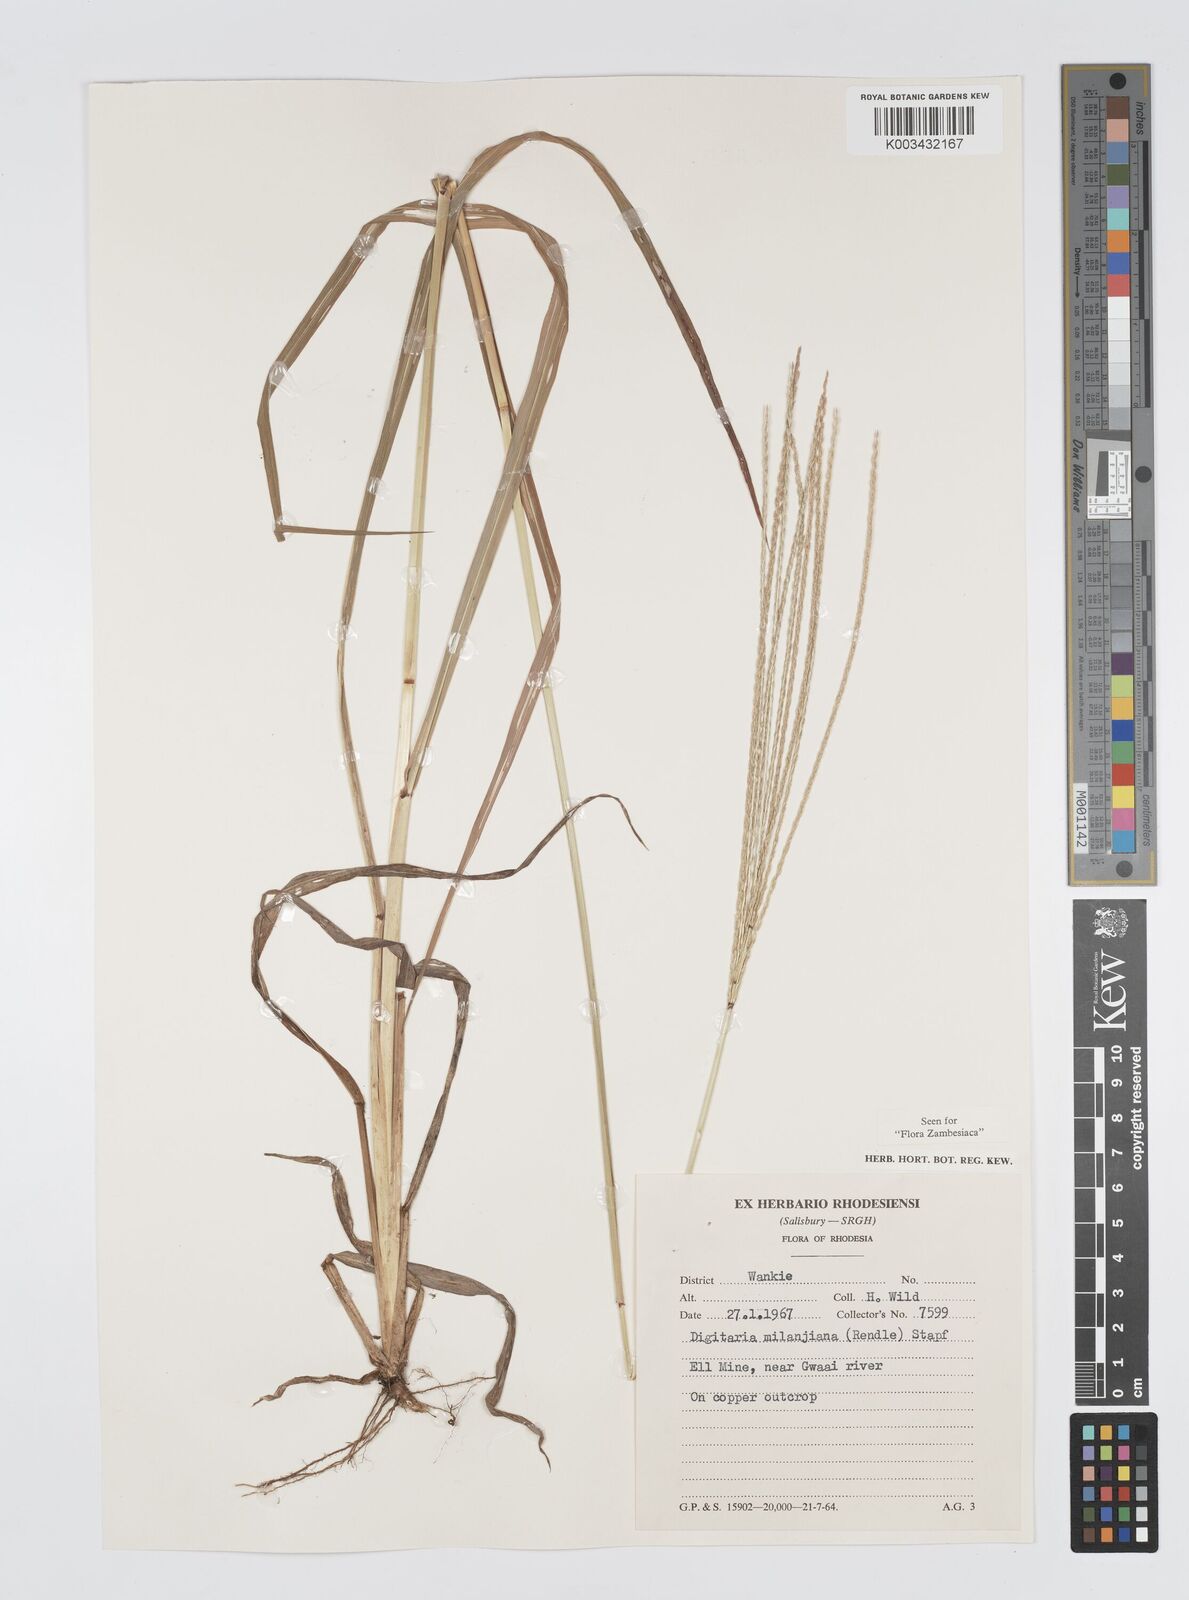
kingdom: Plantae
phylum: Tracheophyta
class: Liliopsida
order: Poales
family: Poaceae
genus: Digitaria
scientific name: Digitaria milanjiana
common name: Madagascar crabgrass
